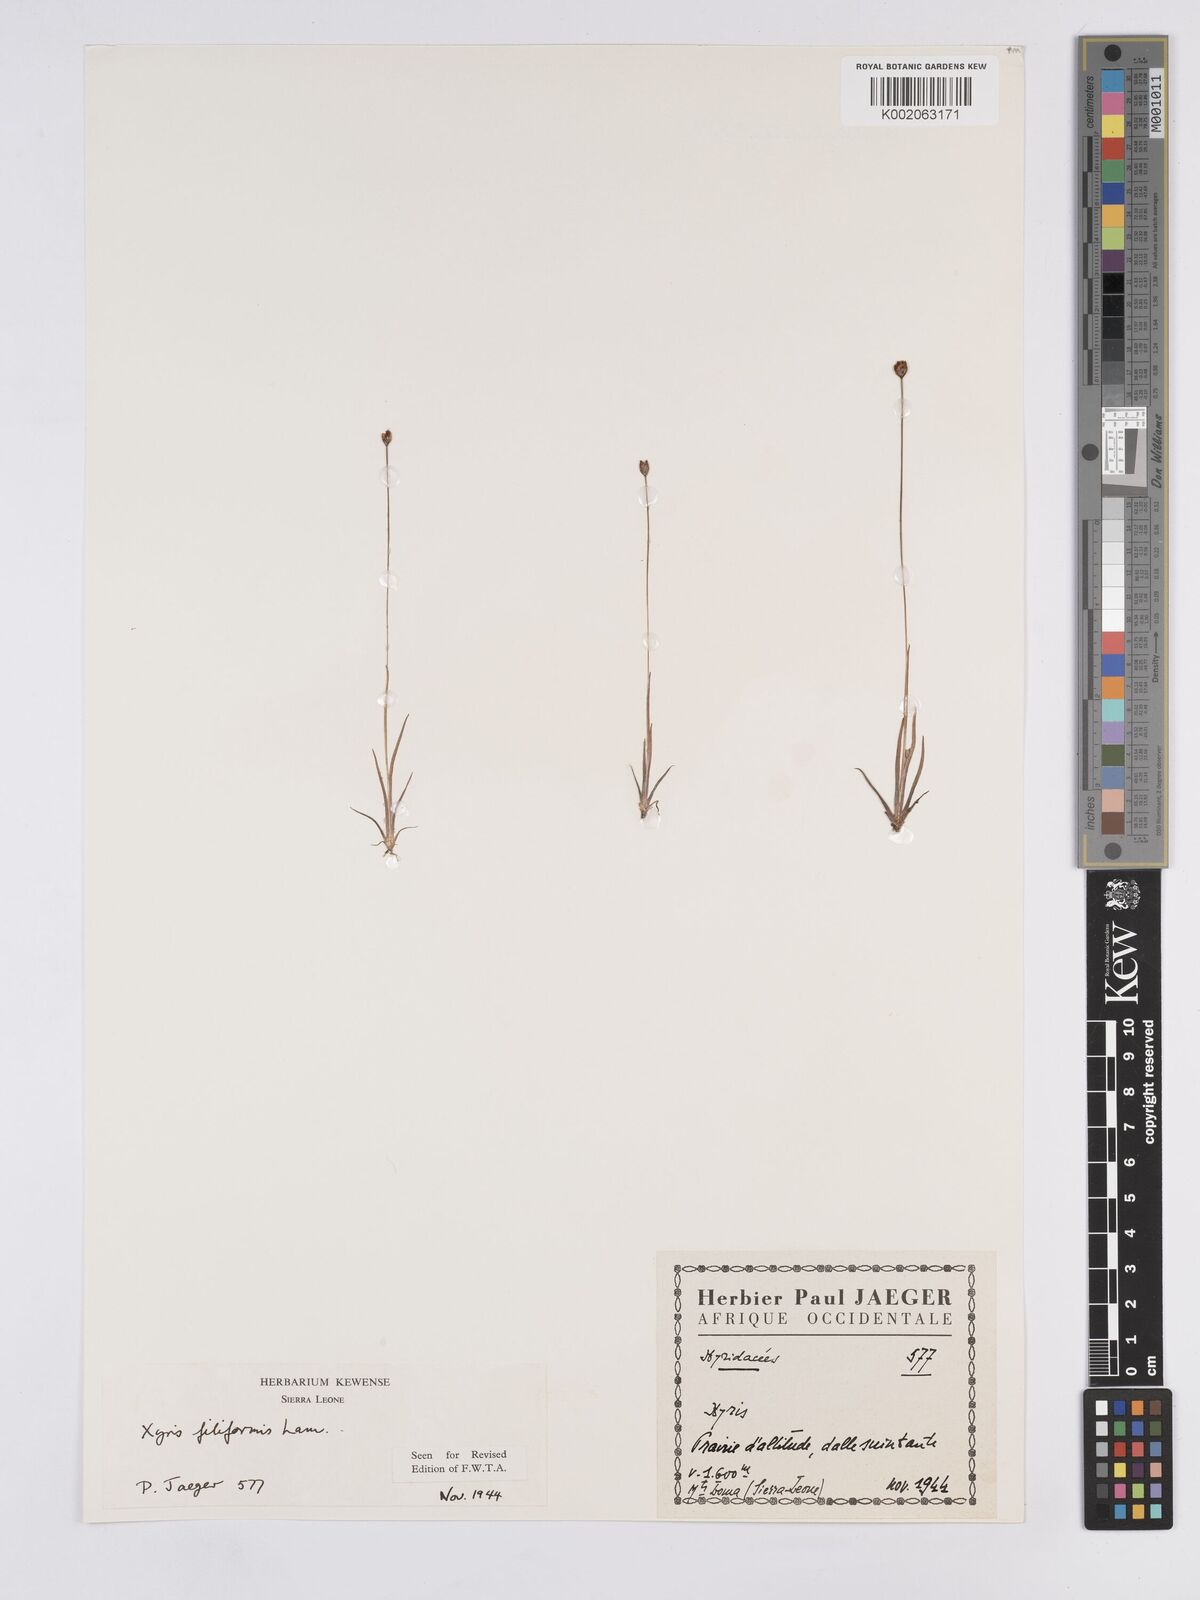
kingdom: Plantae
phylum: Tracheophyta
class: Liliopsida
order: Poales
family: Xyridaceae
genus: Xyris
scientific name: Xyris filiformis
